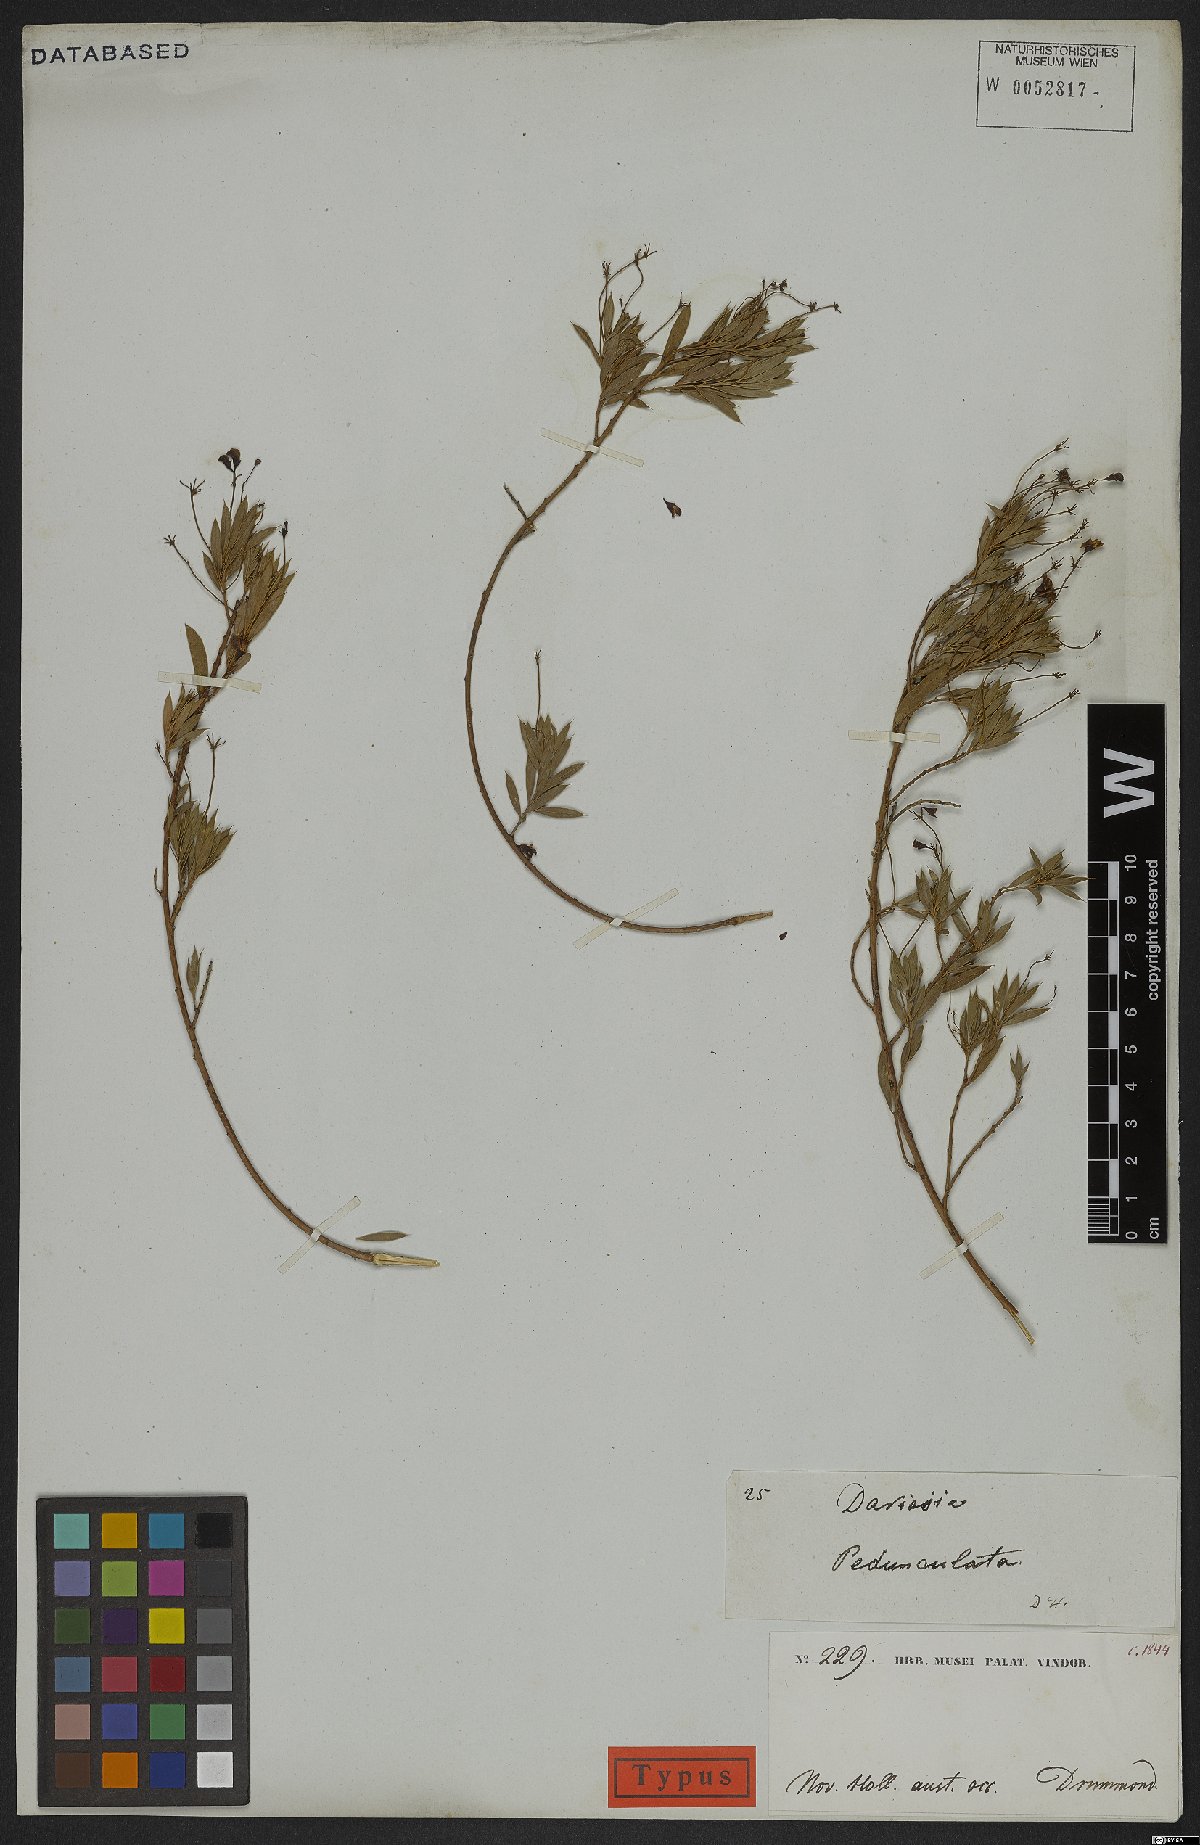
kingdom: Plantae
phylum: Tracheophyta
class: Magnoliopsida
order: Fabales
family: Fabaceae
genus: Daviesia
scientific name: Daviesia pedunculata
